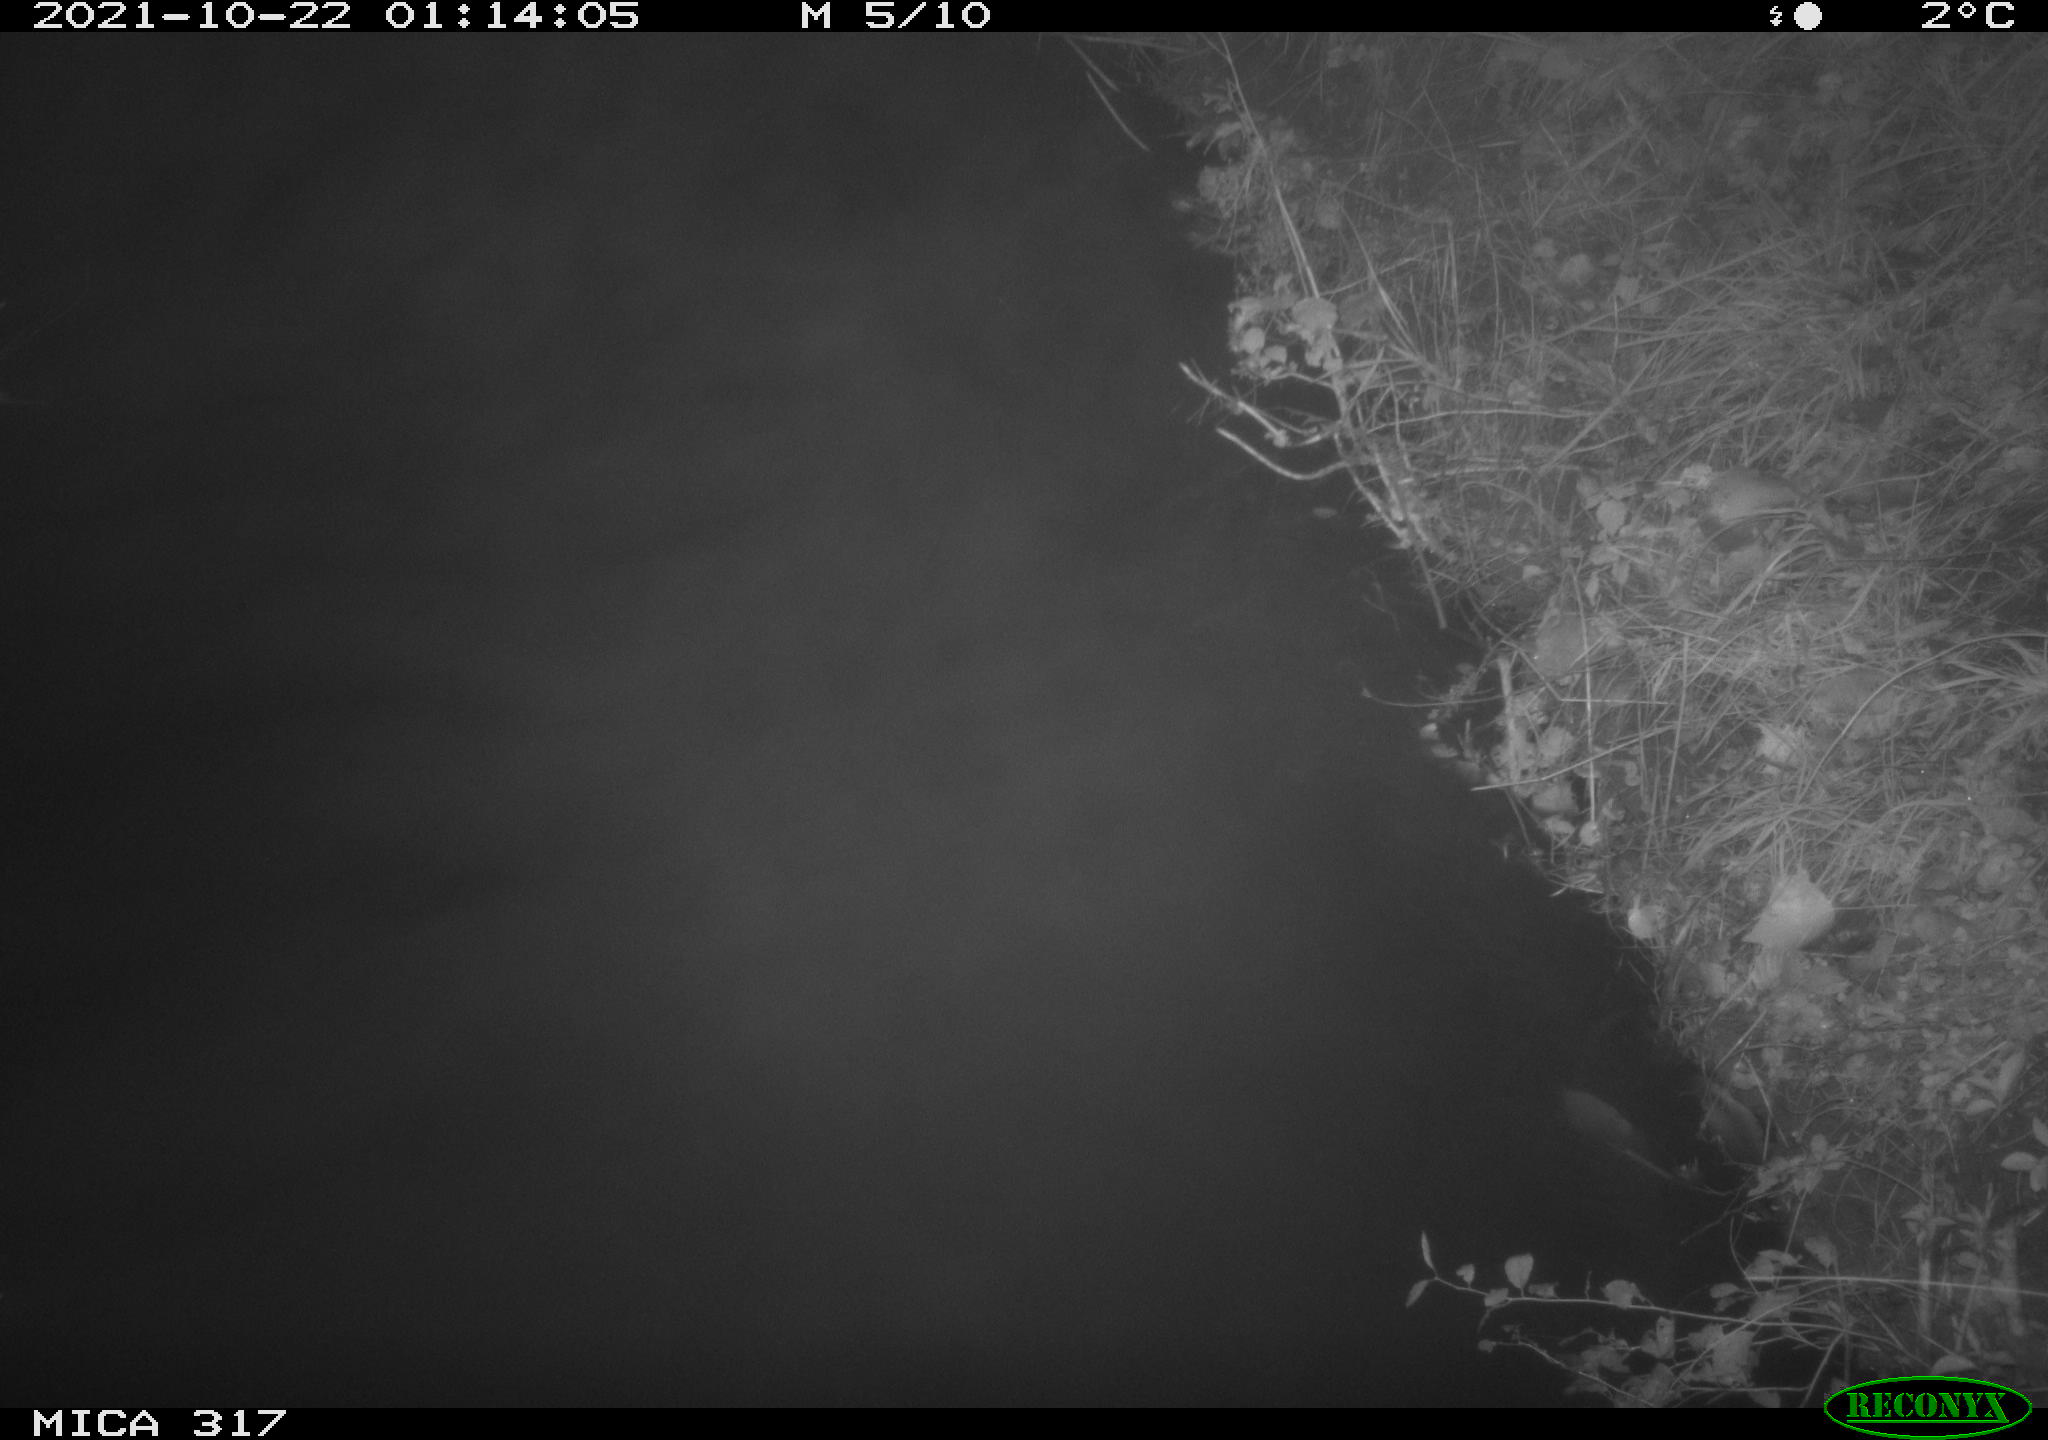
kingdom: Animalia
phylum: Chordata
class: Aves
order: Anseriformes
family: Anatidae
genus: Anas
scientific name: Anas platyrhynchos
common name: Mallard
